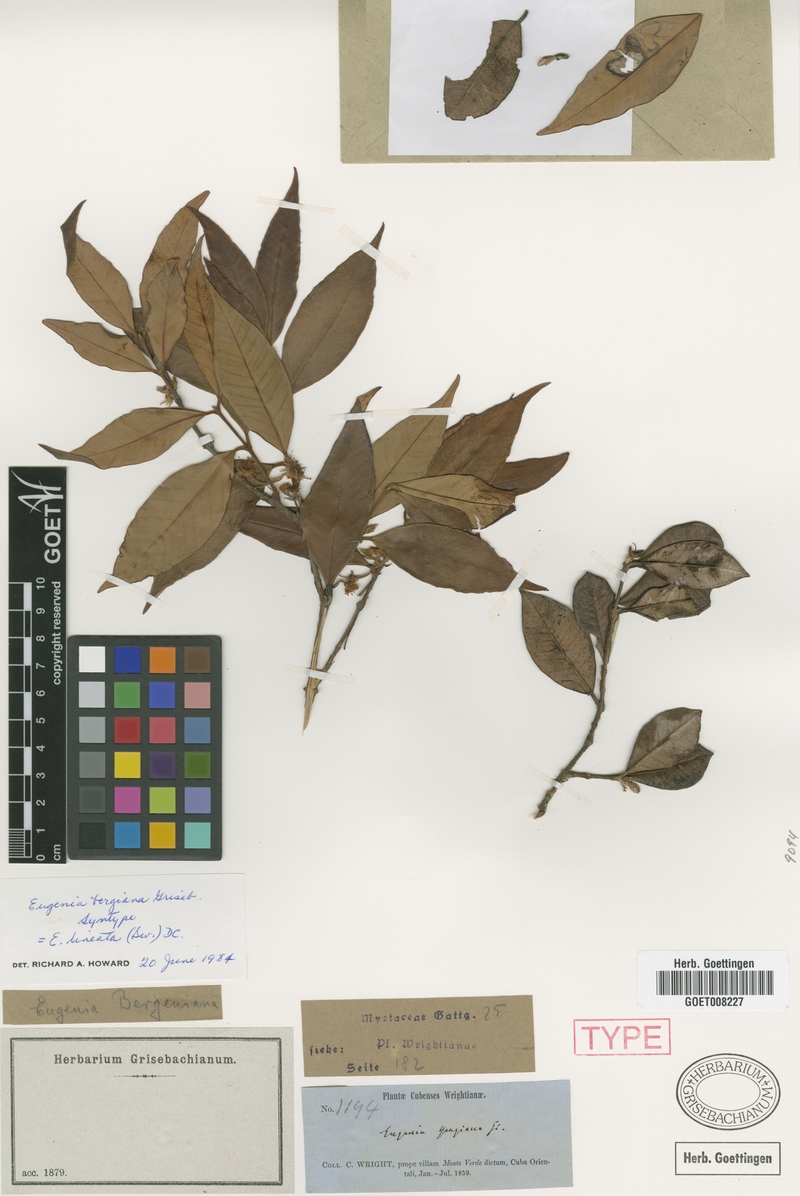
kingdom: Plantae
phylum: Tracheophyta
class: Magnoliopsida
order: Myrtales
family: Myrtaceae
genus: Eugenia
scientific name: Eugenia lineata
